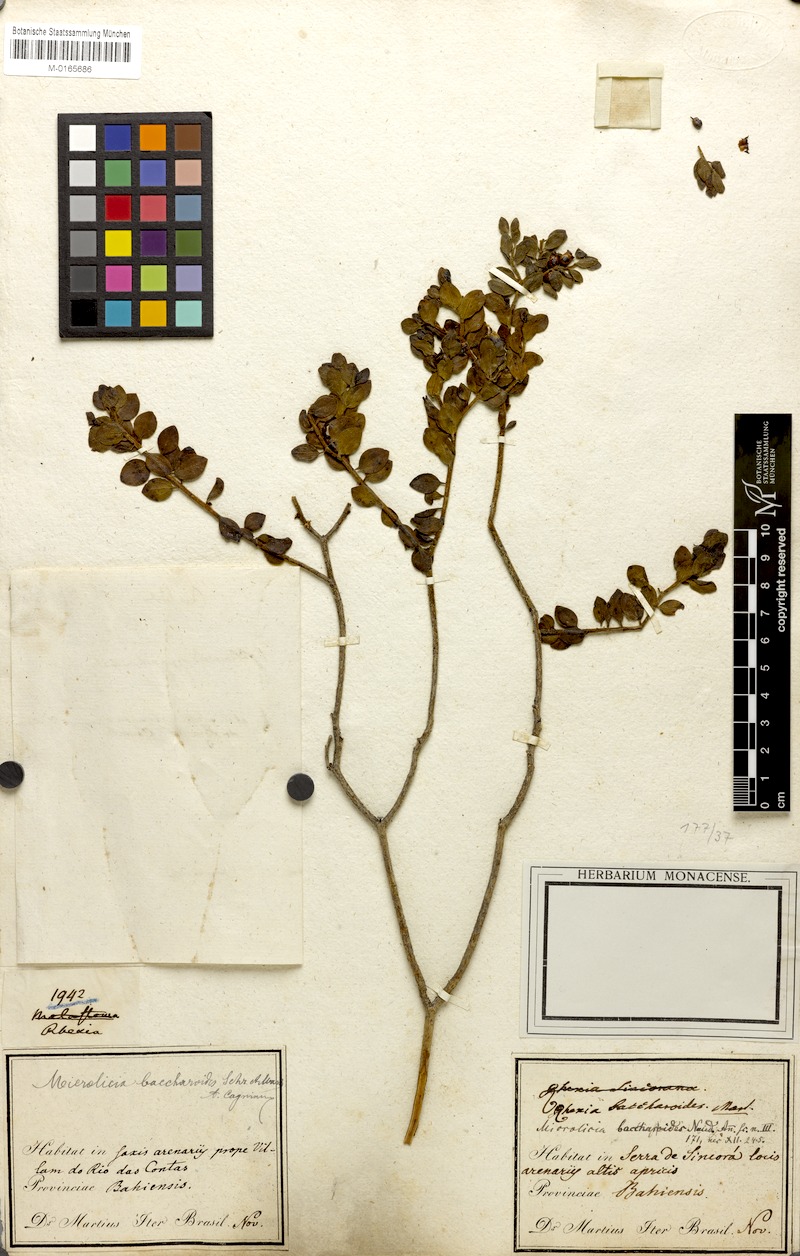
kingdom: Plantae
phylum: Tracheophyta
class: Magnoliopsida
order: Myrtales
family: Melastomataceae
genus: Microlicia
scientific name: Microlicia baccharoides
